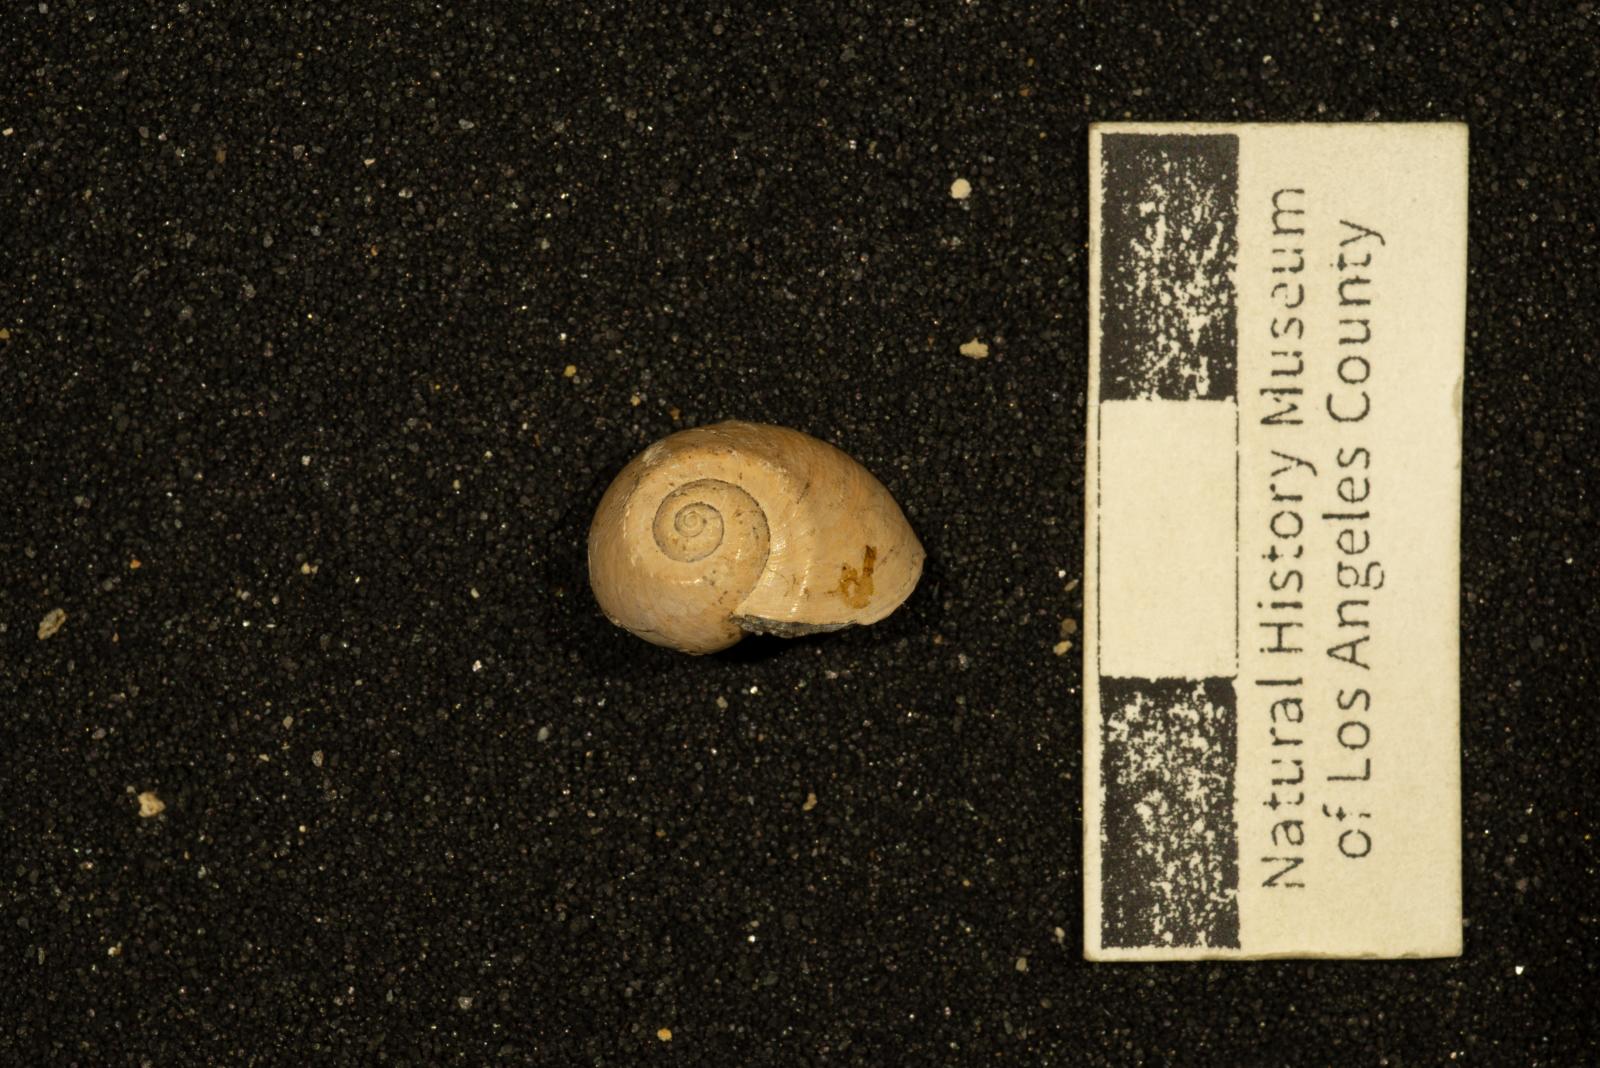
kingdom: Animalia
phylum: Mollusca
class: Gastropoda
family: Gyrodidae
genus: Gyrodes
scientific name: Gyrodes quercus
